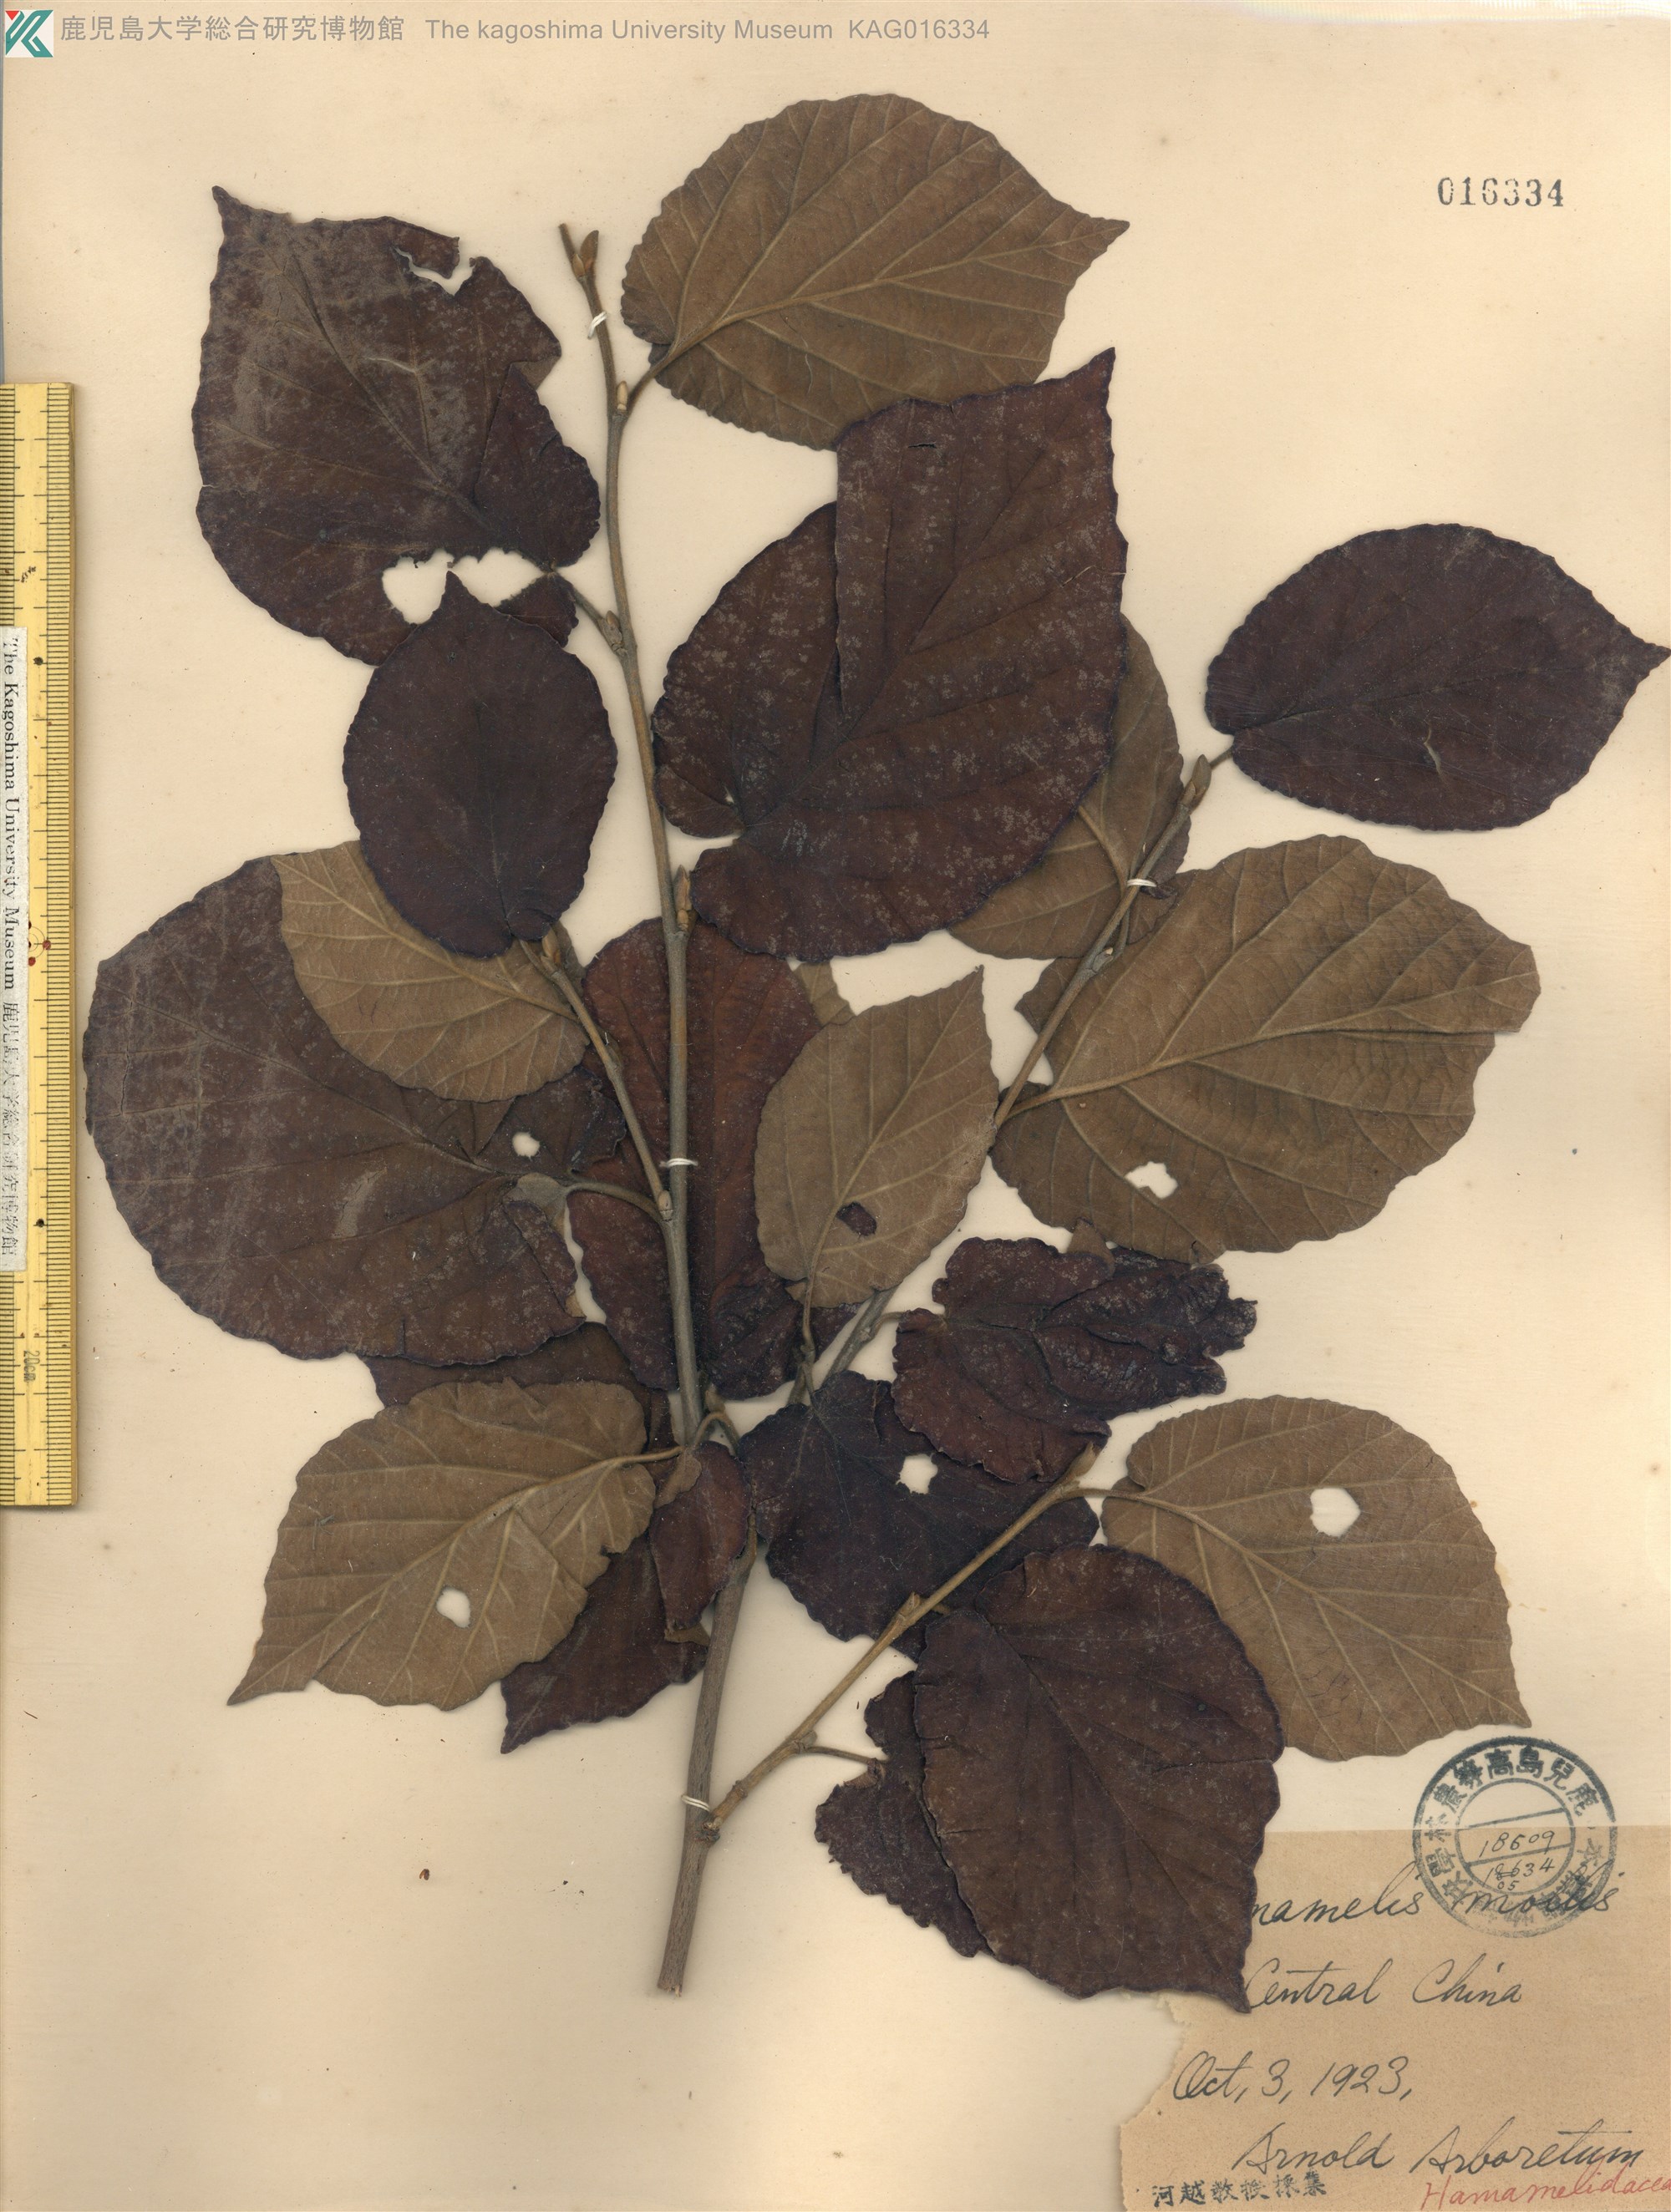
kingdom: Plantae
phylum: Tracheophyta
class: Magnoliopsida
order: Saxifragales
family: Hamamelidaceae
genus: Hamamelis
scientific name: Hamamelis mollis
